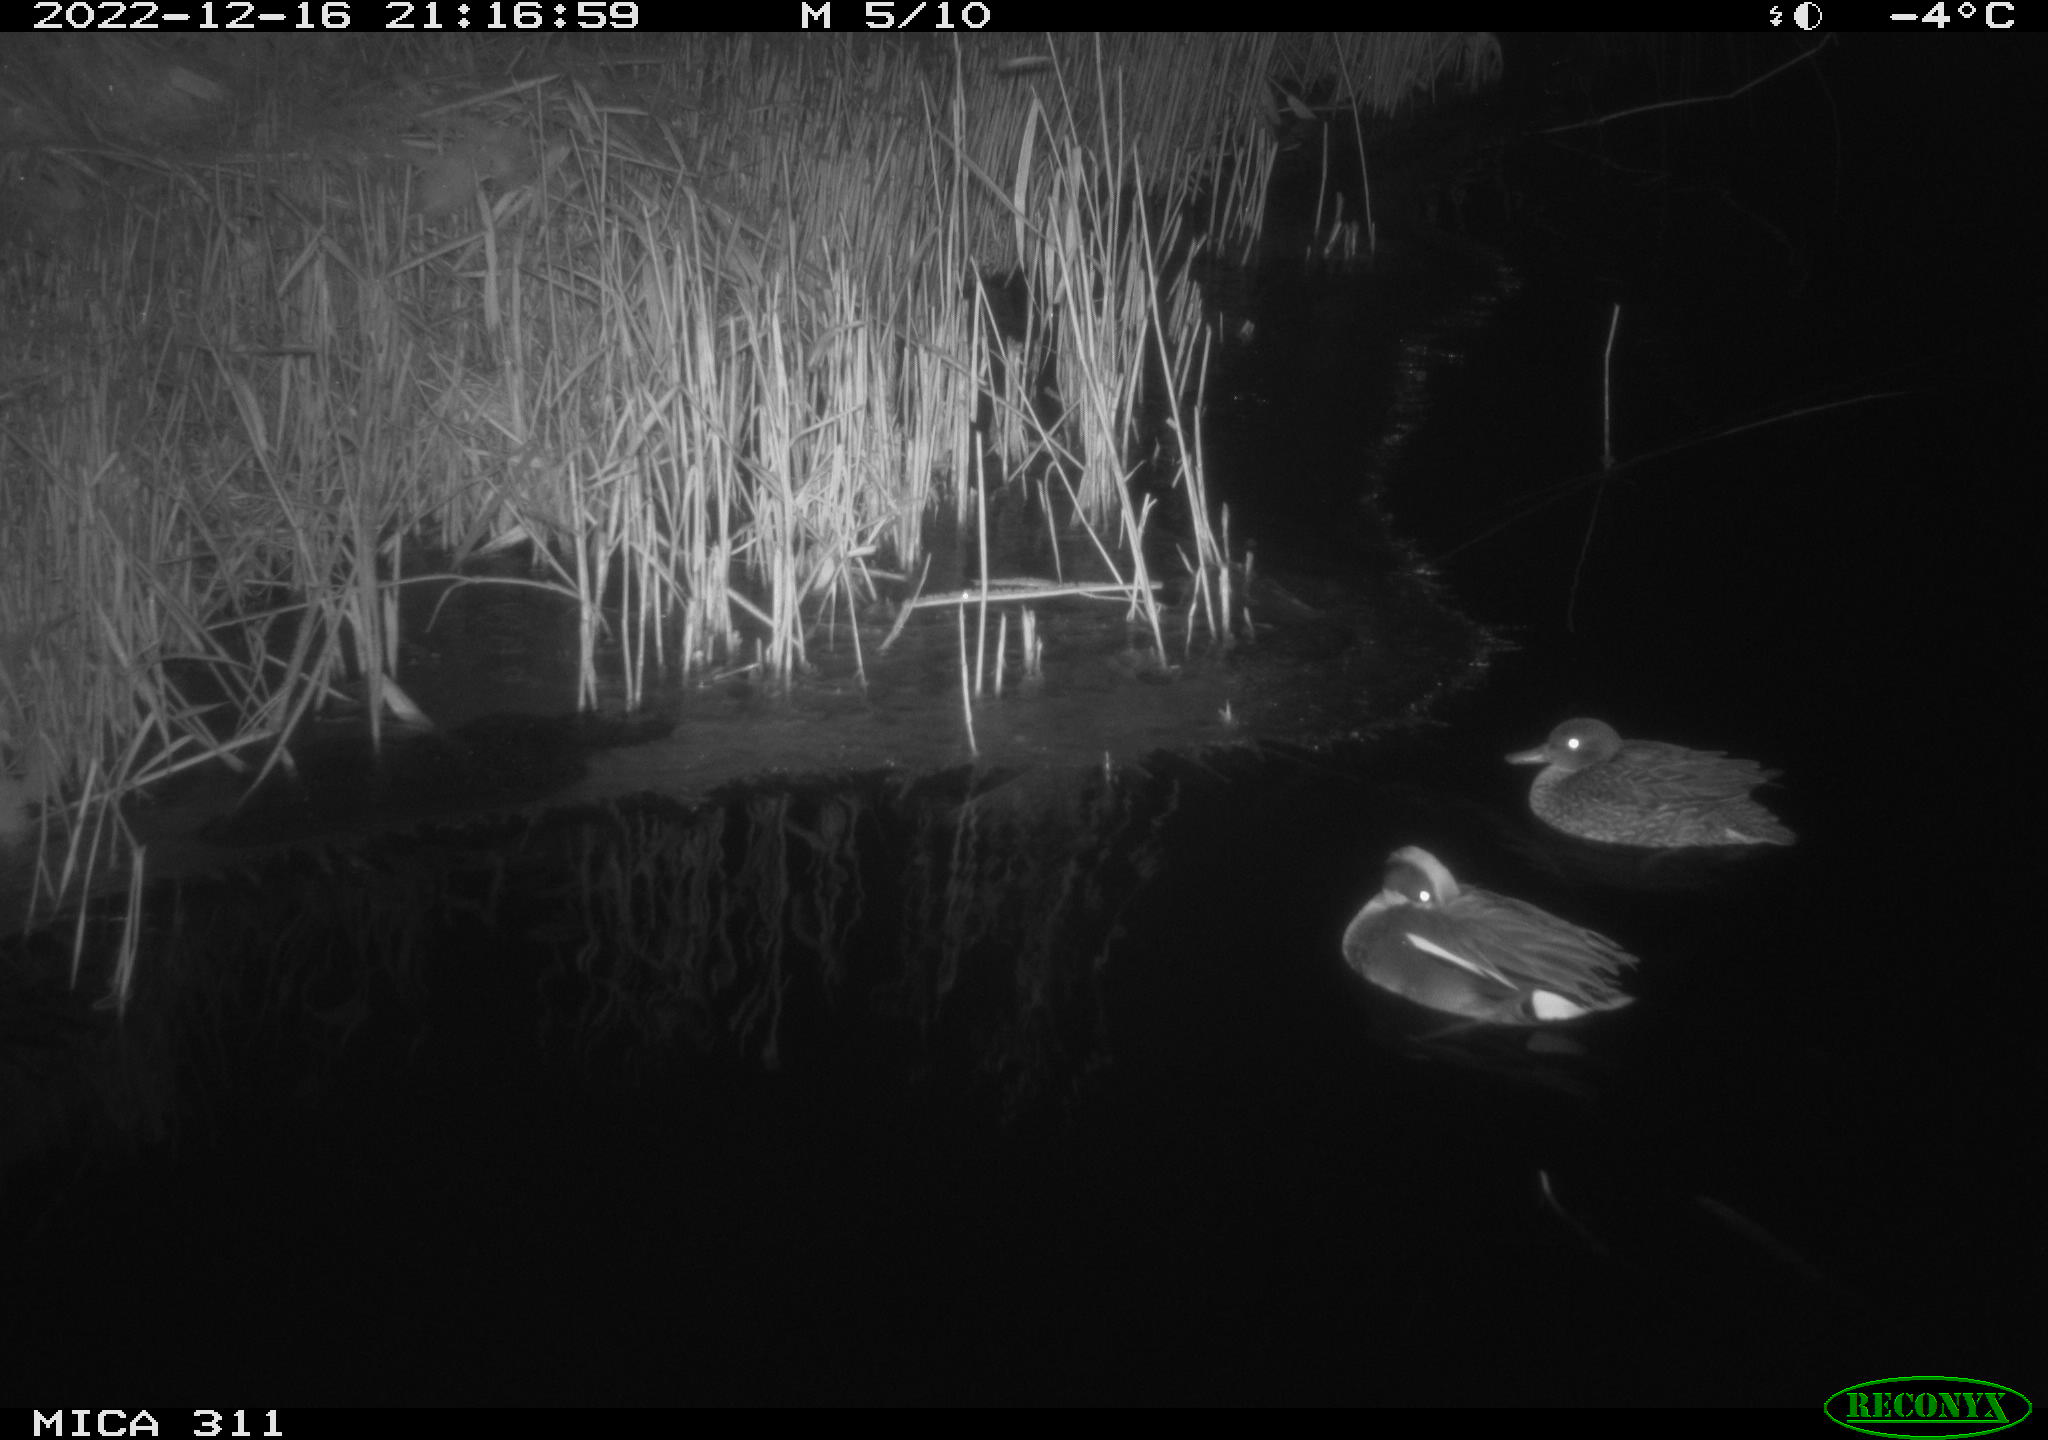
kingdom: Animalia
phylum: Chordata
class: Aves
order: Anseriformes
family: Anatidae
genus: Anas
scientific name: Anas
